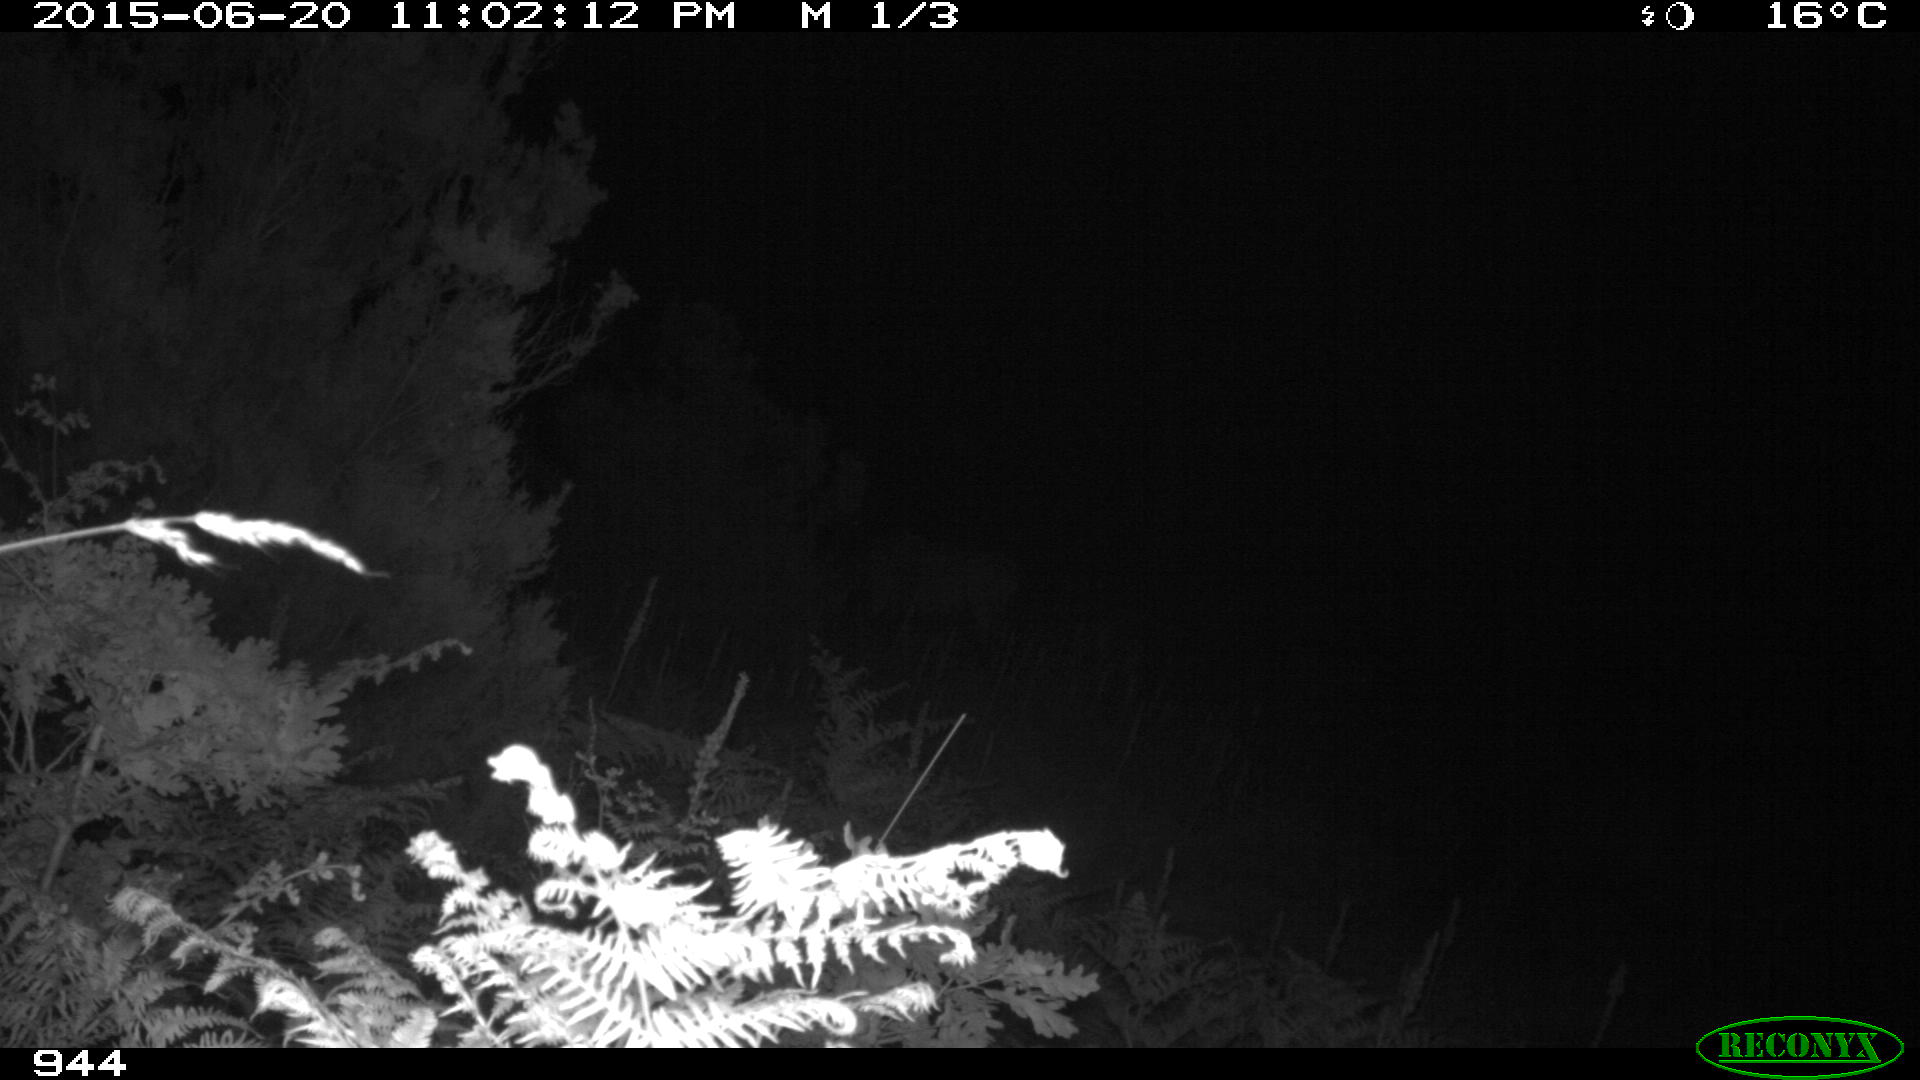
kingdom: Animalia
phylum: Chordata
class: Mammalia
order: Perissodactyla
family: Equidae
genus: Equus
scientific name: Equus caballus
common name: Horse
